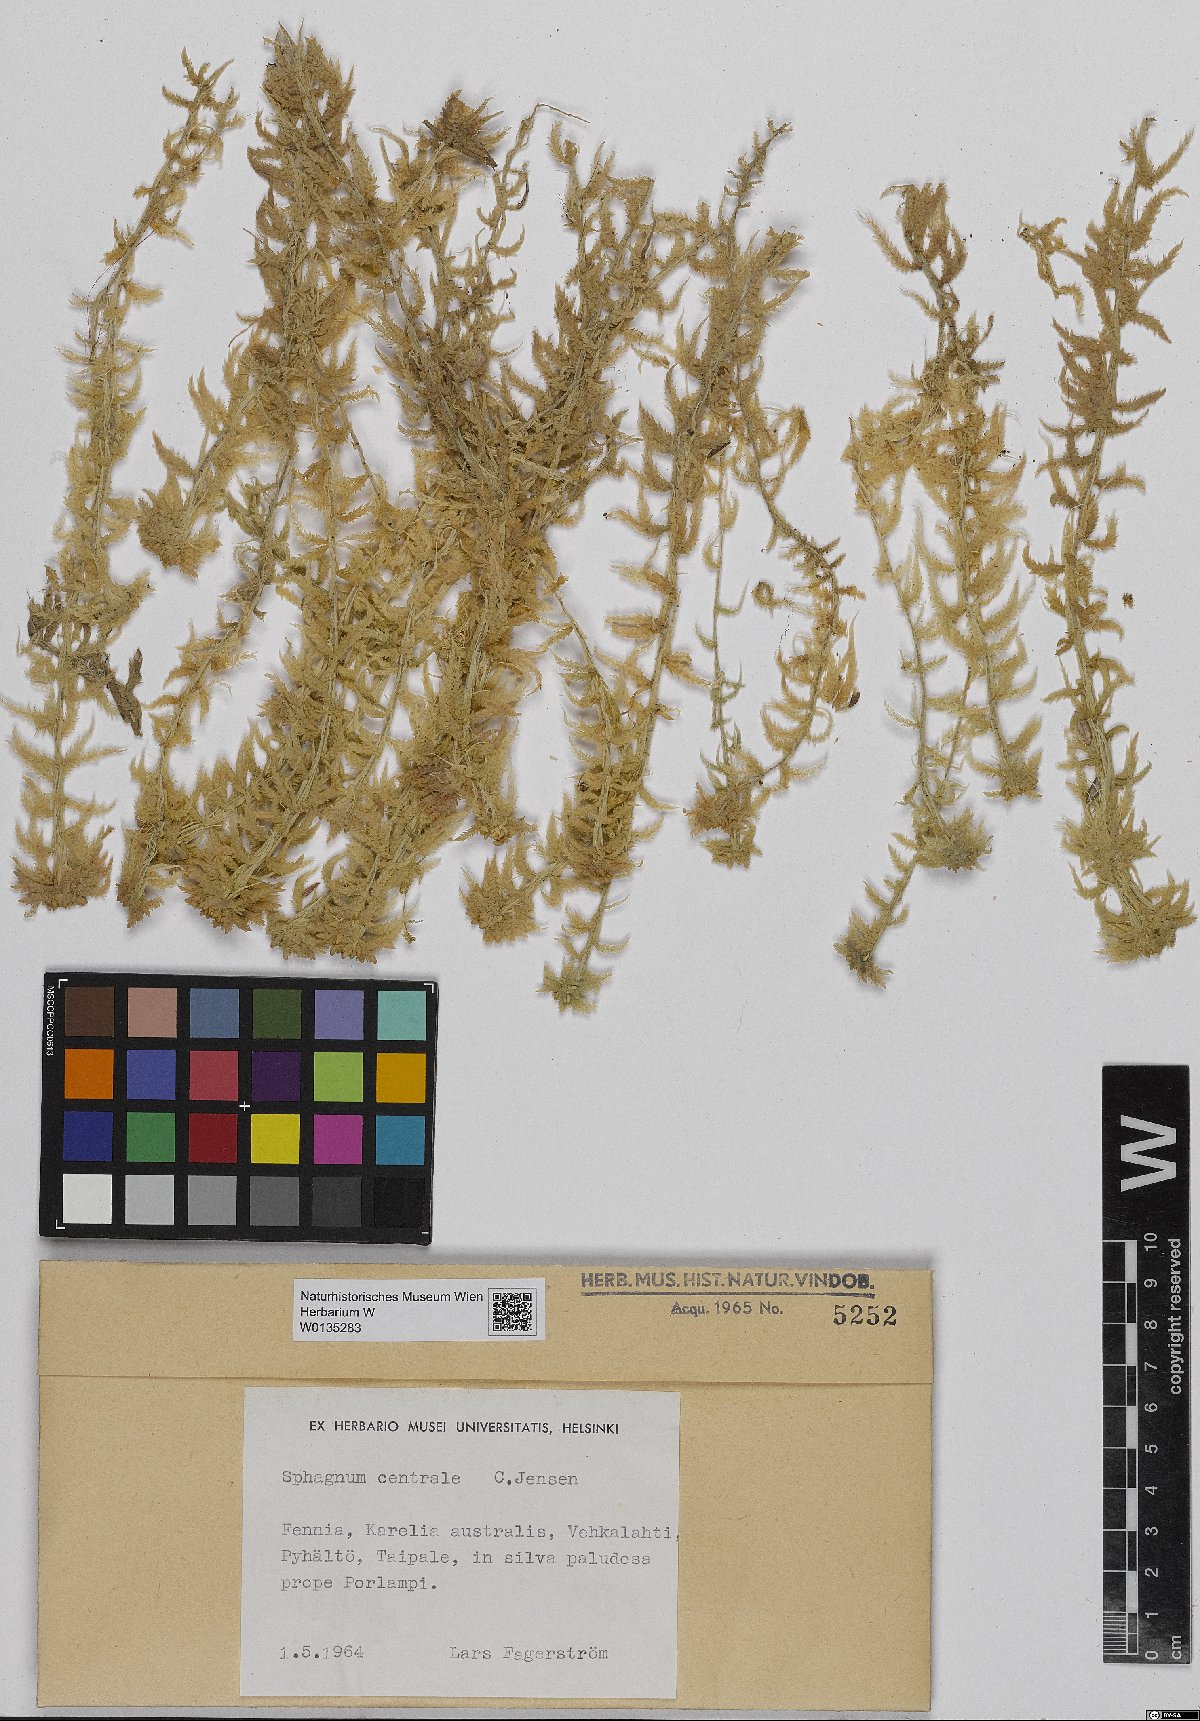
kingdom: Plantae
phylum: Bryophyta
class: Sphagnopsida
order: Sphagnales
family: Sphagnaceae
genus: Sphagnum
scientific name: Sphagnum centrale
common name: Central peat moss
